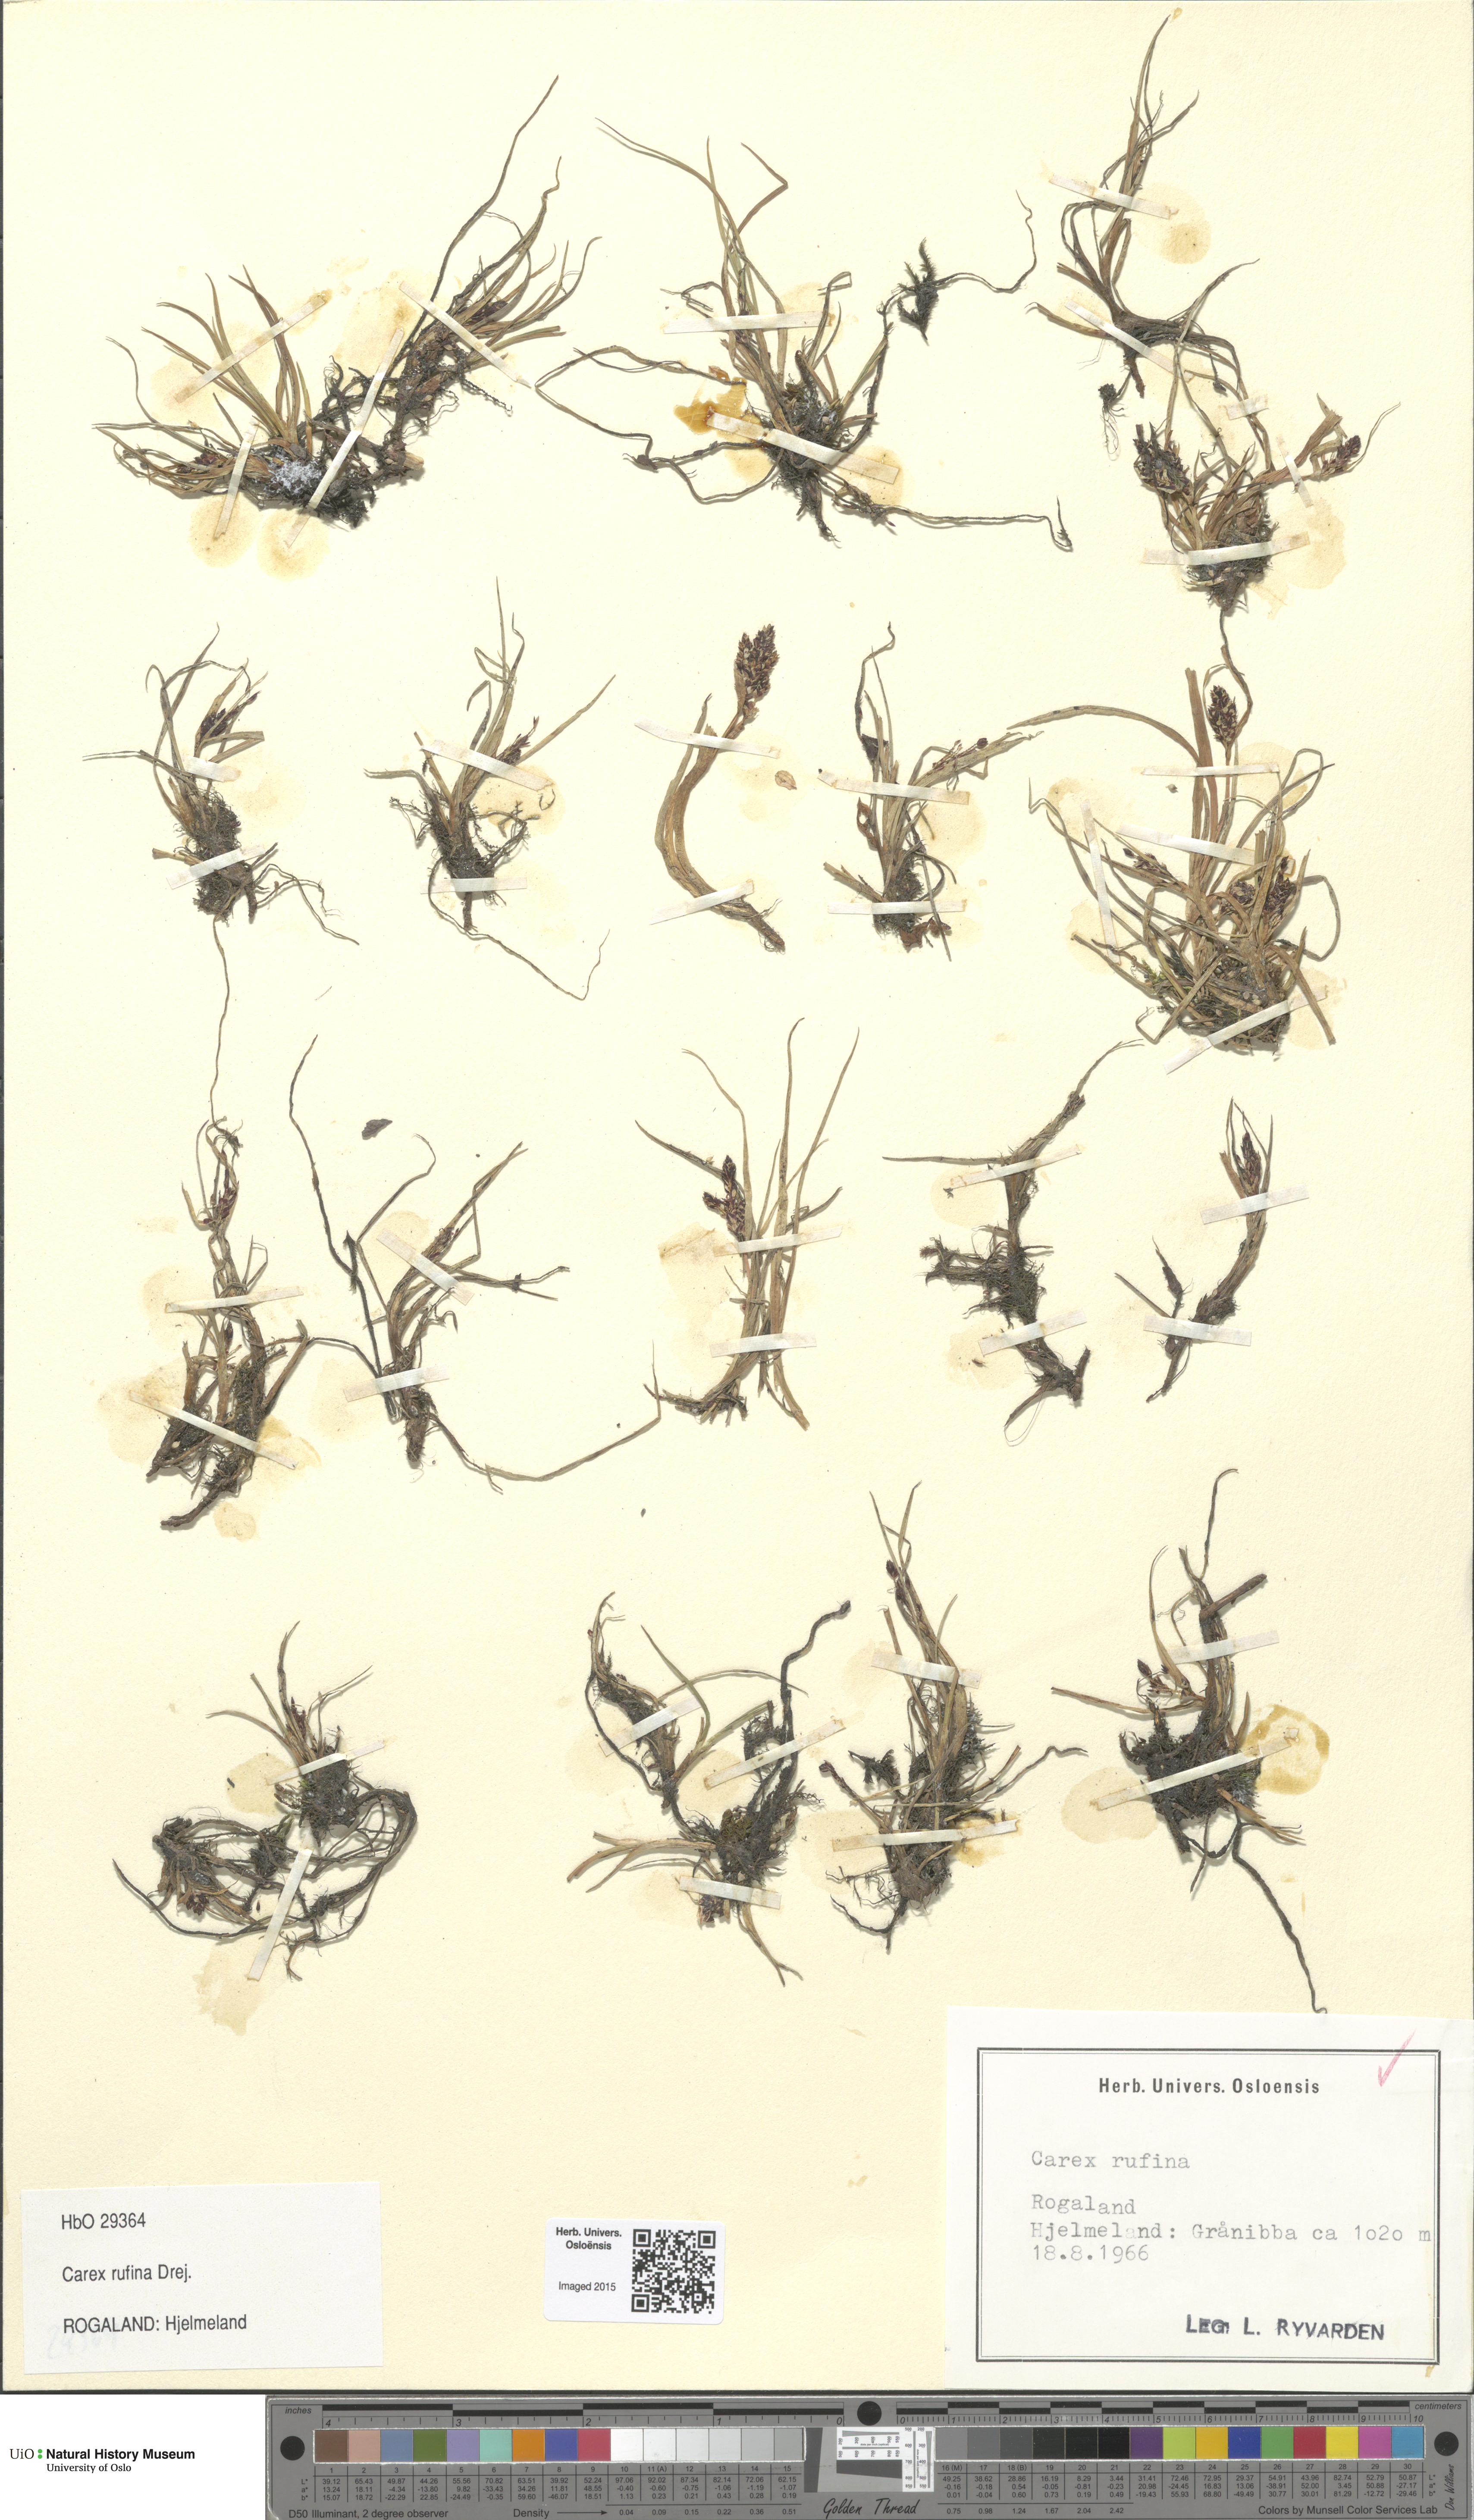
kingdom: Plantae
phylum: Tracheophyta
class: Liliopsida
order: Poales
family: Cyperaceae
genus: Carex
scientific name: Carex rufina
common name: Reddish sedge
